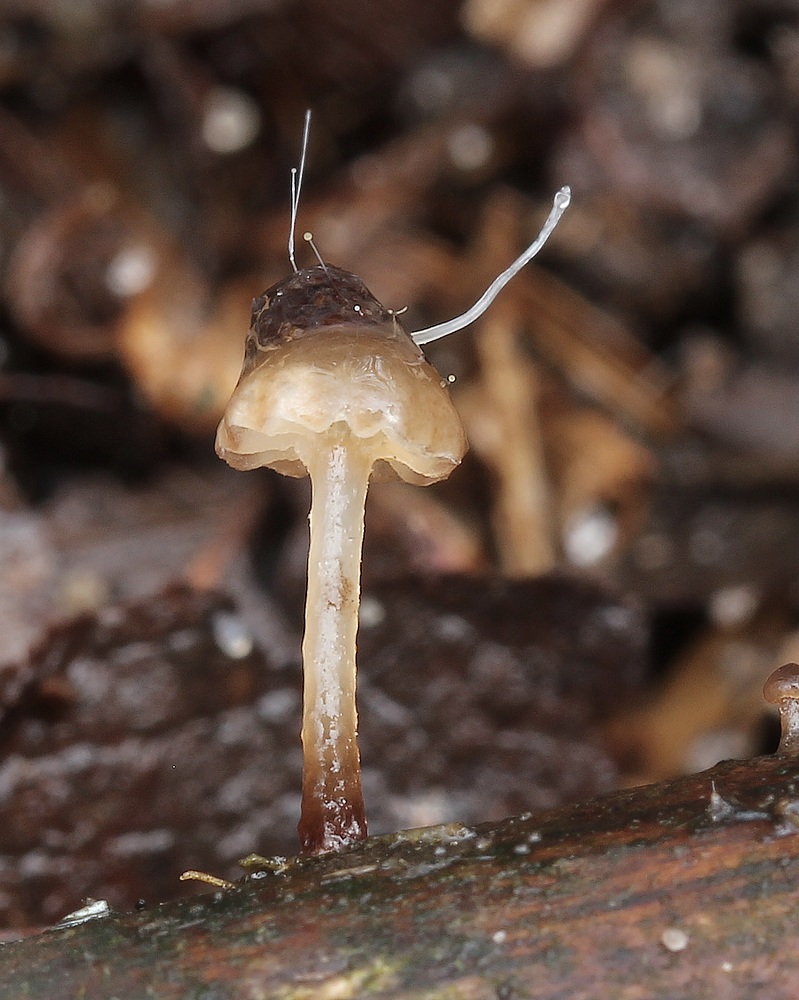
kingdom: Fungi
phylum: Mucoromycota
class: Mucoromycetes
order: Mucorales
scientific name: Mucorales
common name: mugordenen
